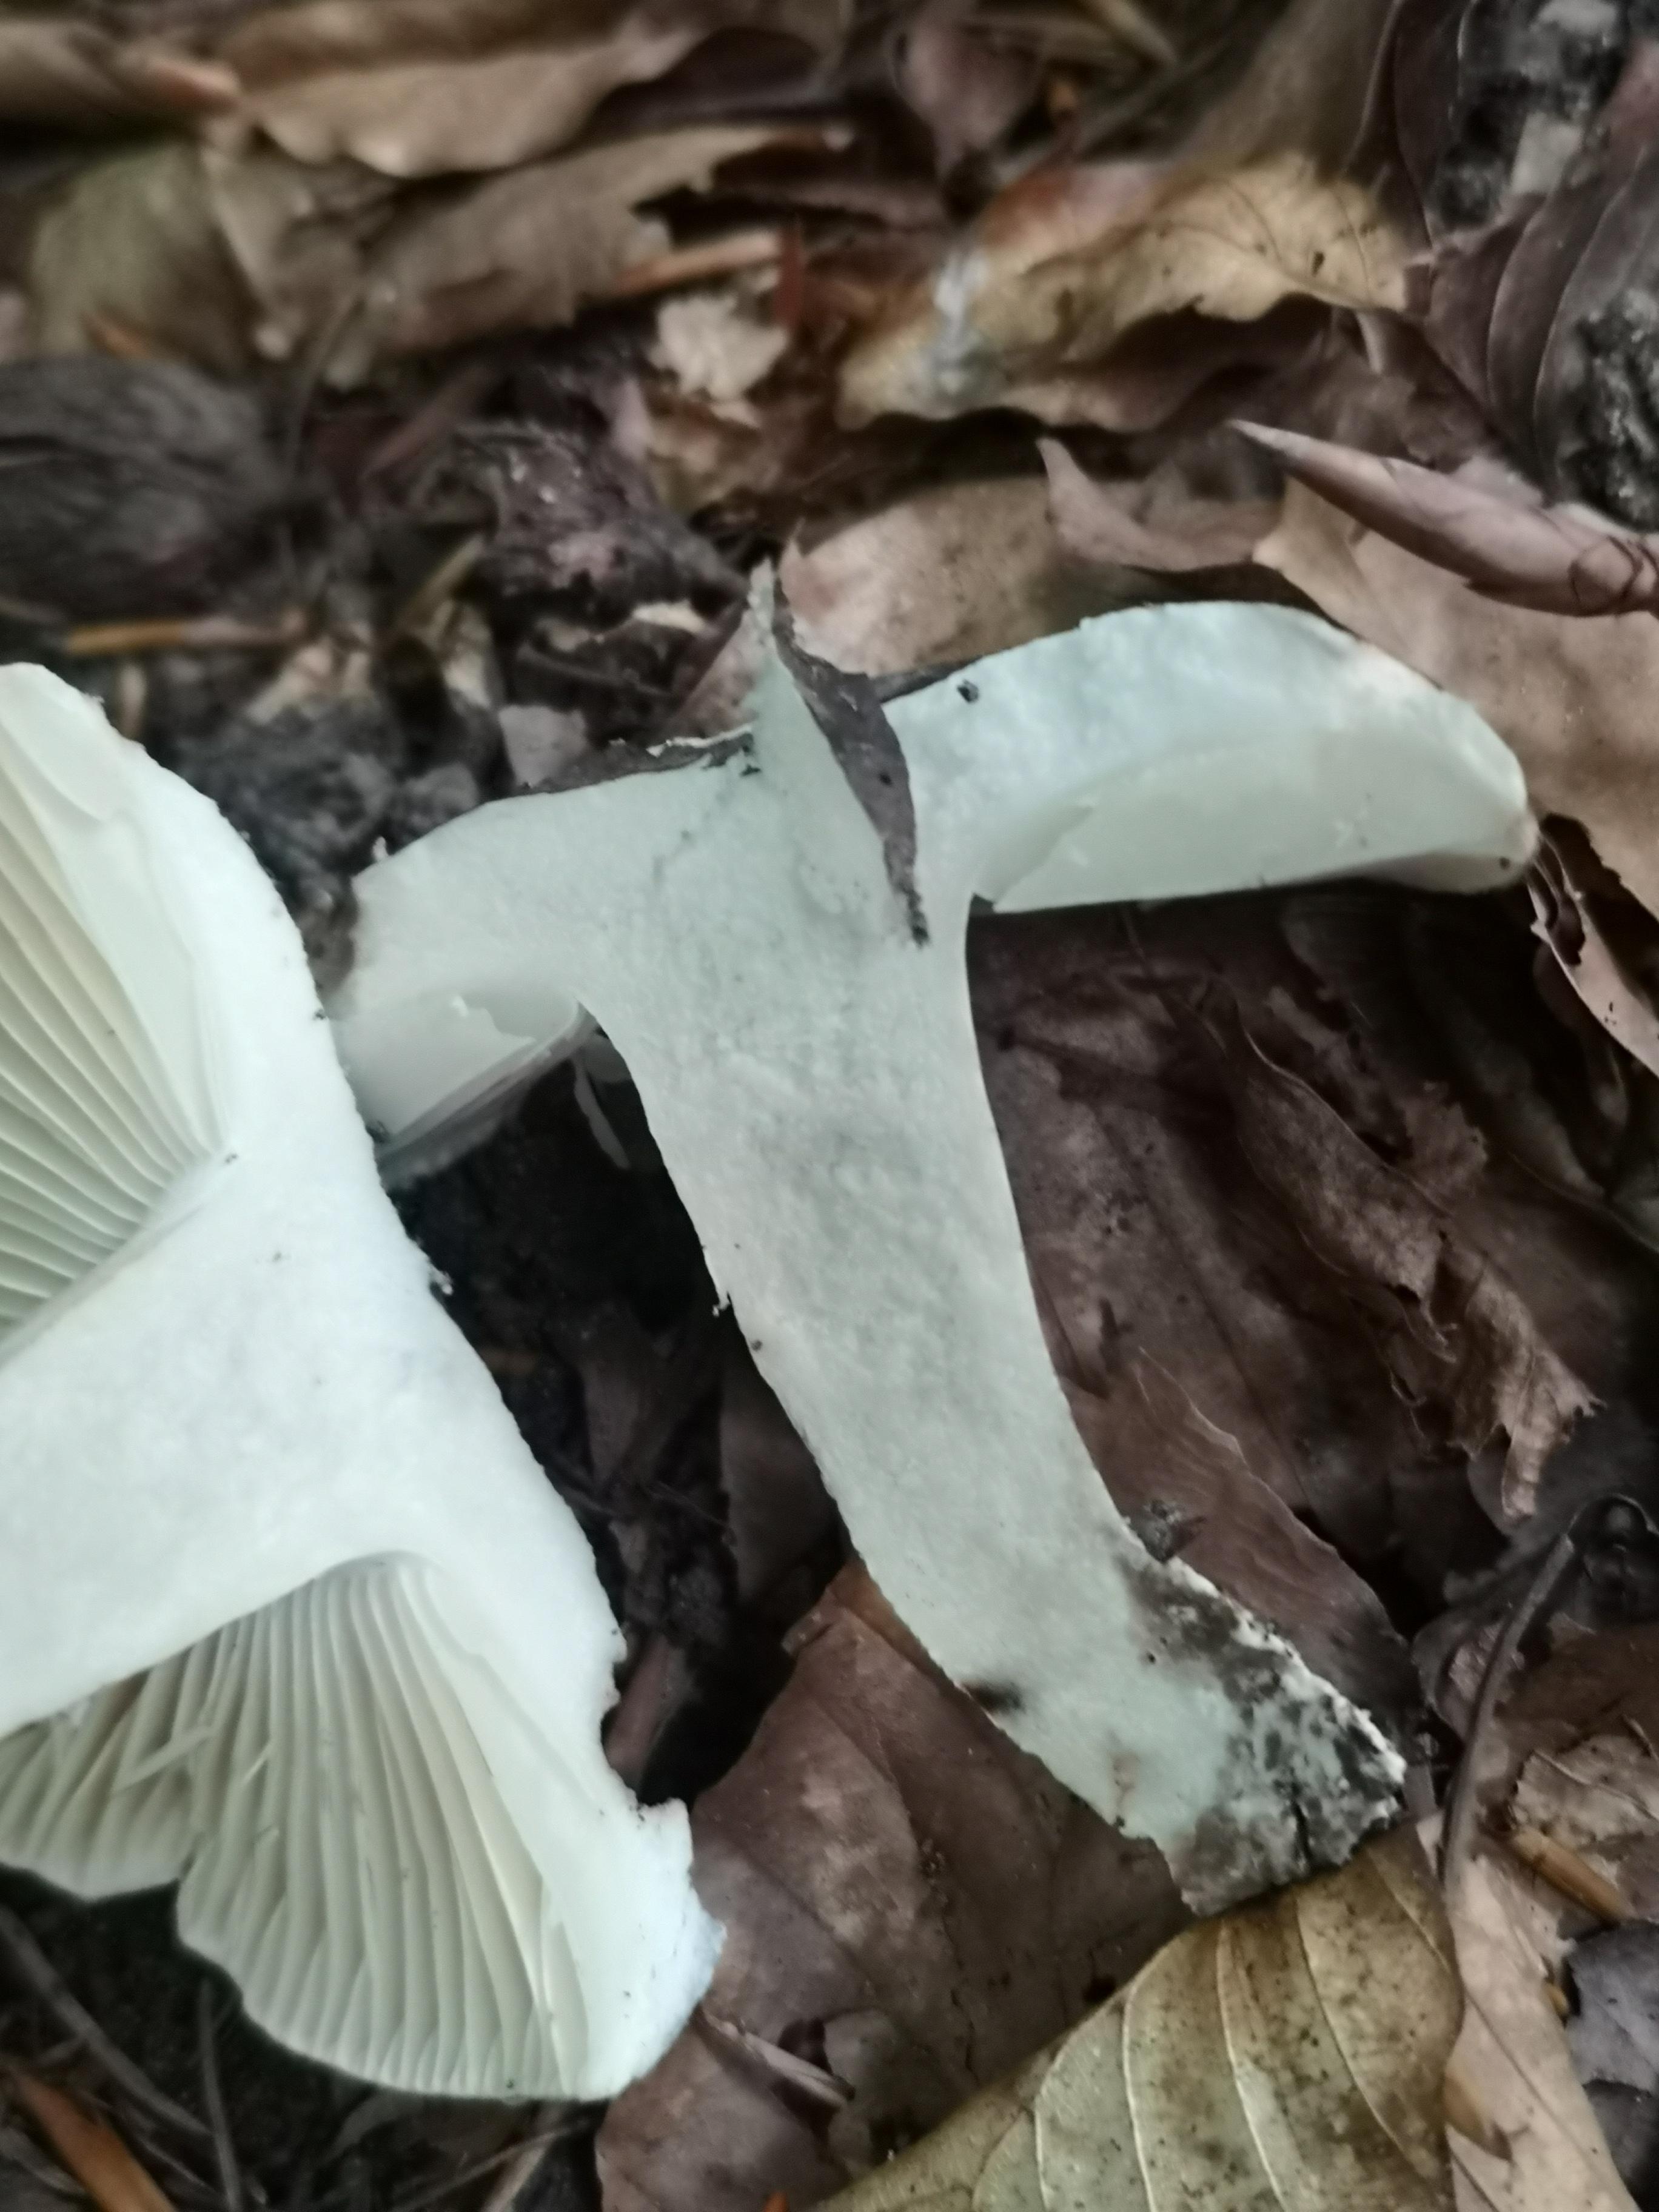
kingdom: Fungi
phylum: Basidiomycota
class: Agaricomycetes
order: Russulales
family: Russulaceae
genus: Russula
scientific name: Russula adusta
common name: sværtende skørhat
